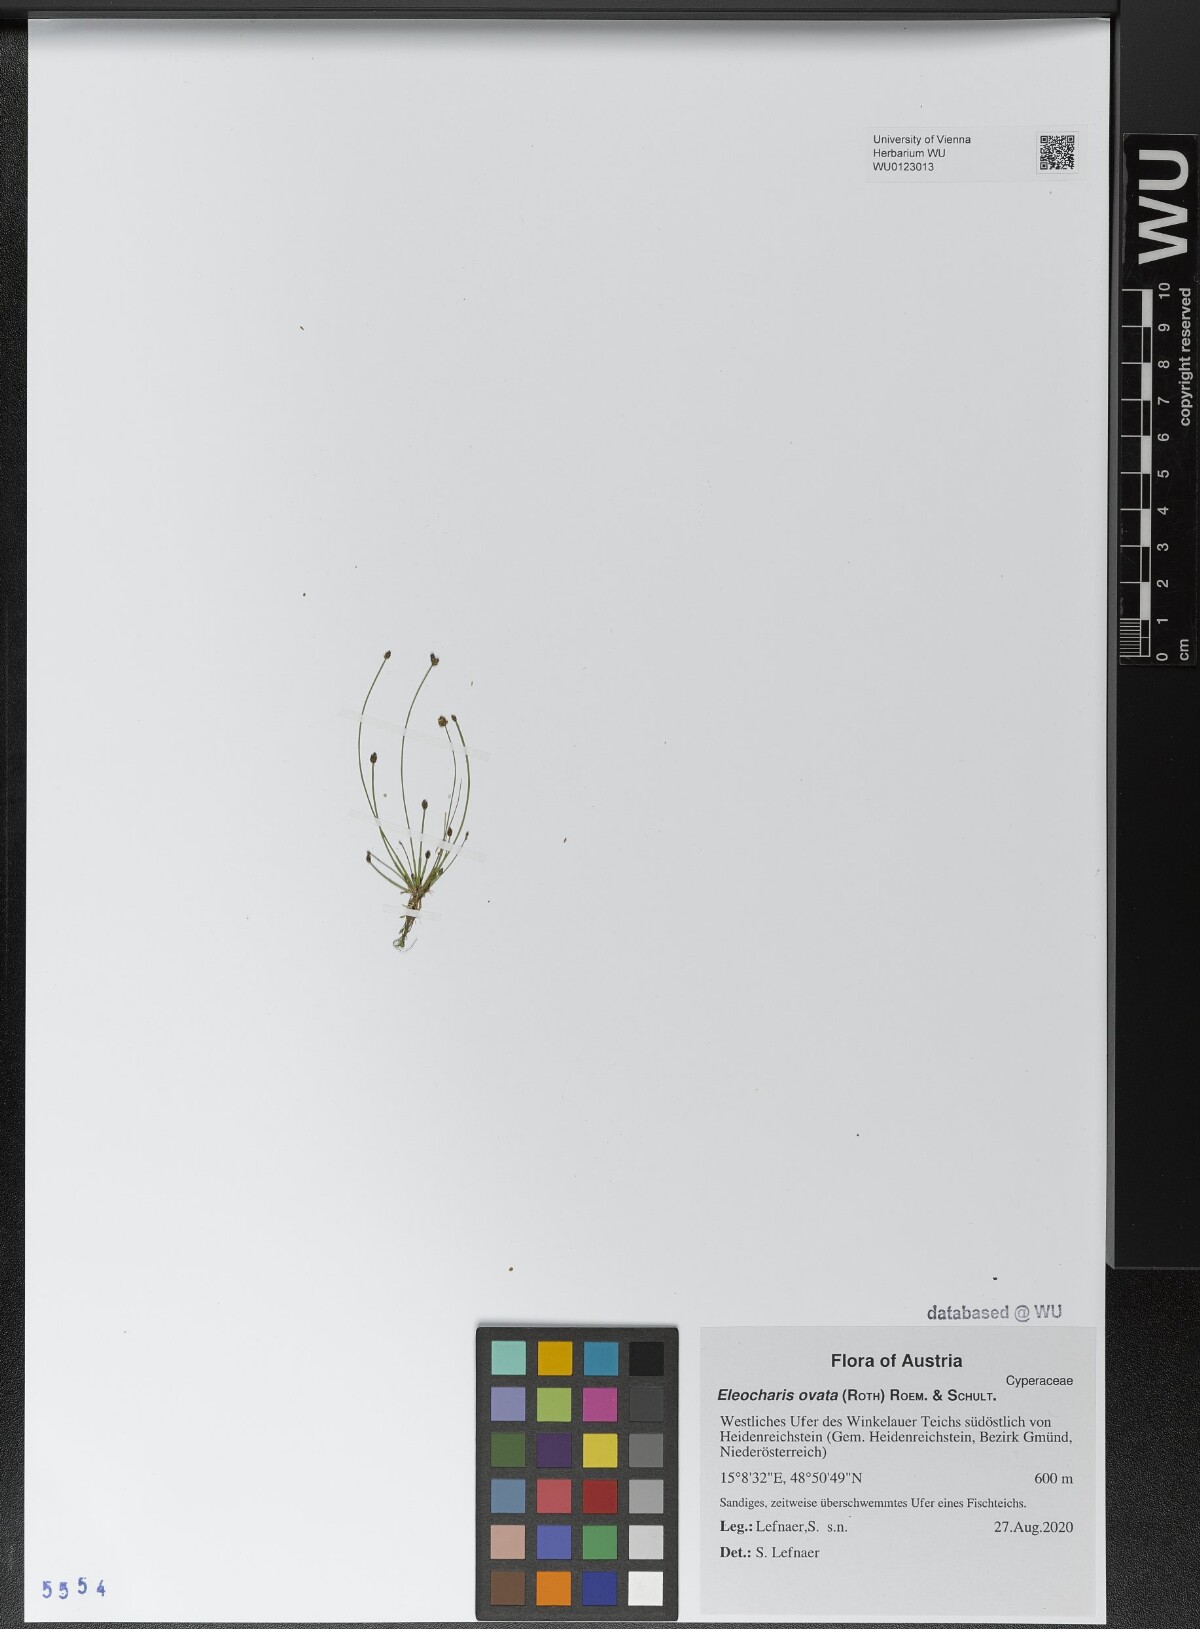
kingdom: Plantae
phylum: Tracheophyta
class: Liliopsida
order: Poales
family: Cyperaceae
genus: Eleocharis
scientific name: Eleocharis ovata
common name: Oval spike-rush
